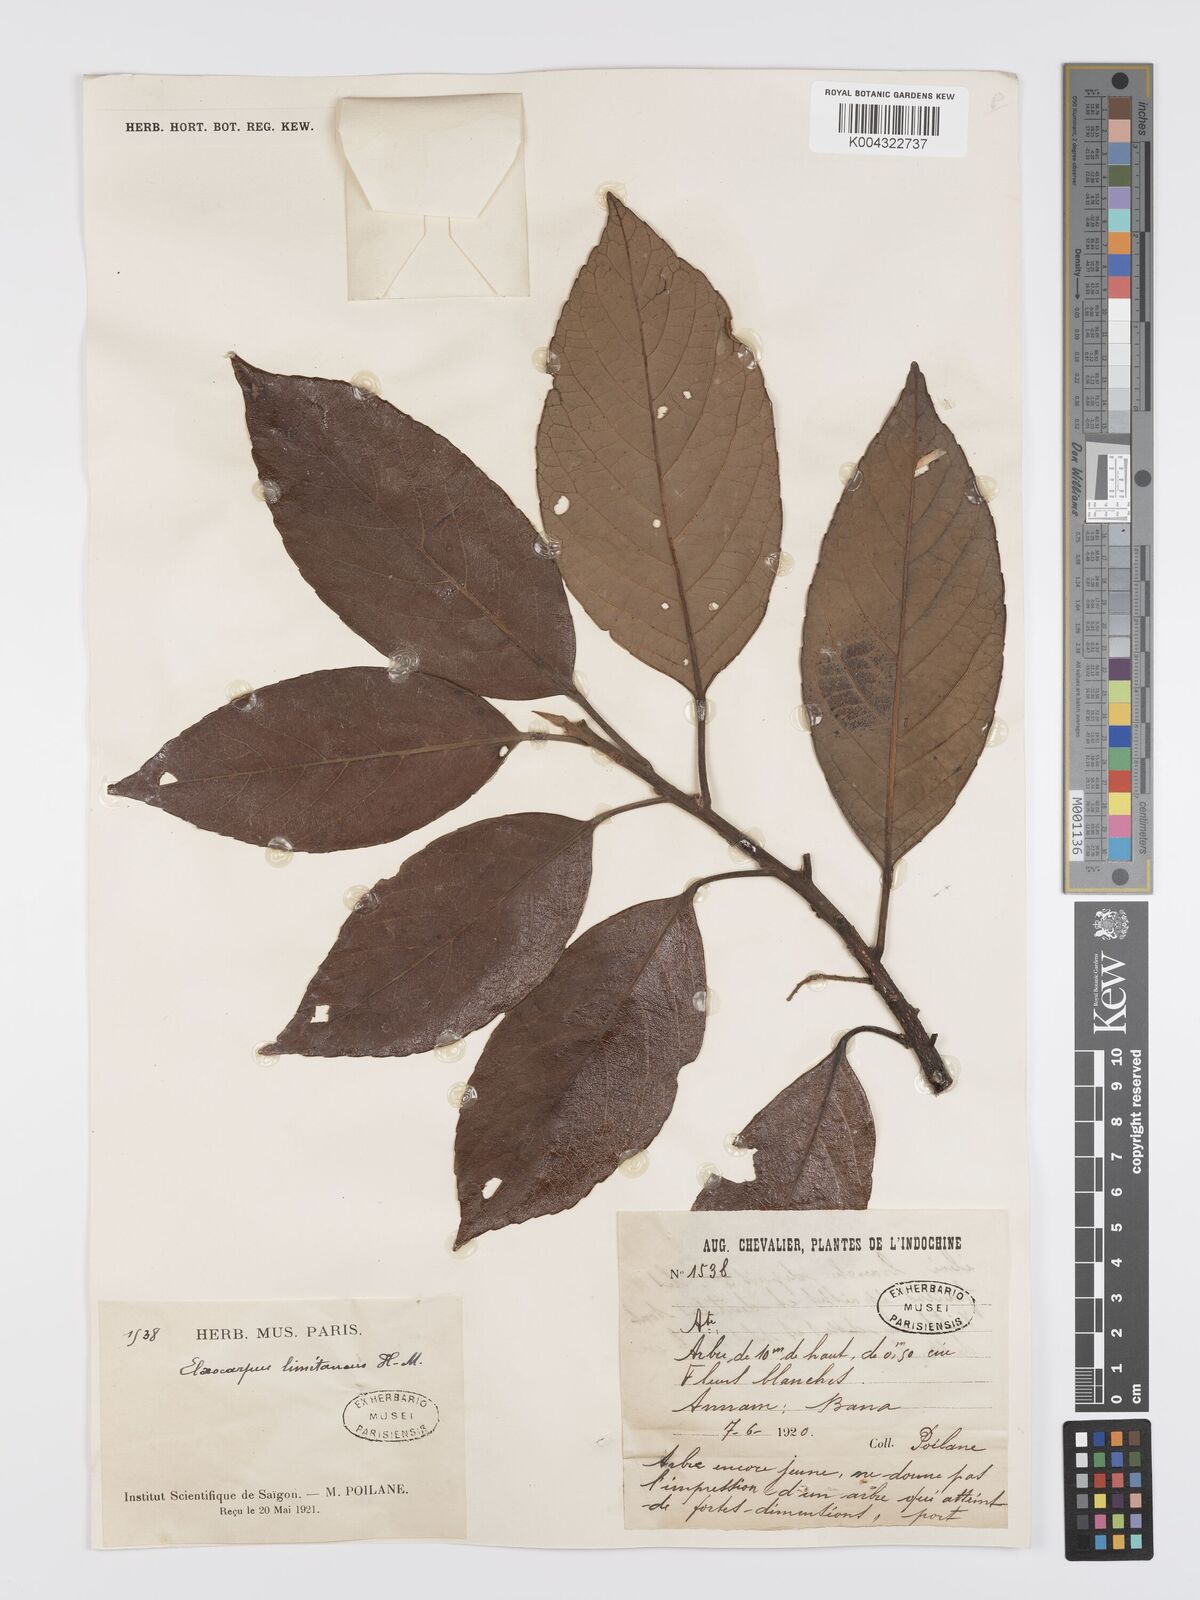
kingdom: Plantae
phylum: Tracheophyta
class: Magnoliopsida
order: Oxalidales
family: Elaeocarpaceae
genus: Elaeocarpus
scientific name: Elaeocarpus limitaneus
